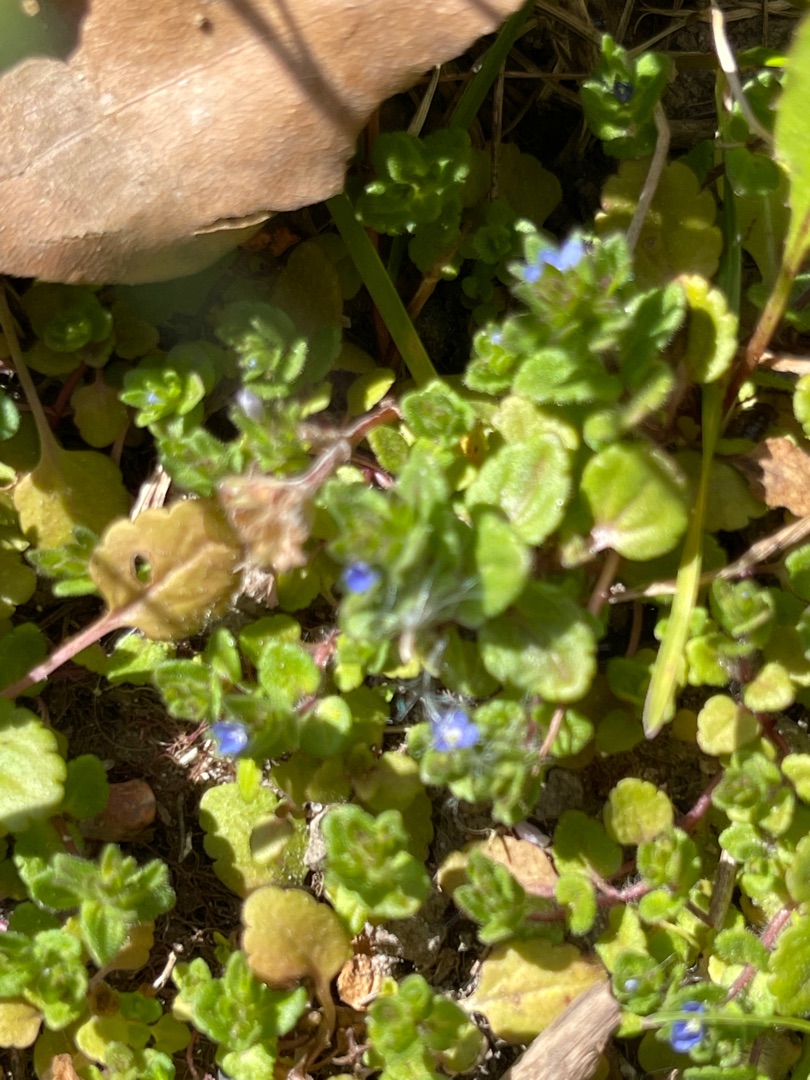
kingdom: Plantae
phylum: Tracheophyta
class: Magnoliopsida
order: Lamiales
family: Plantaginaceae
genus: Veronica
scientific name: Veronica arvensis
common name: Mark-ærenpris
